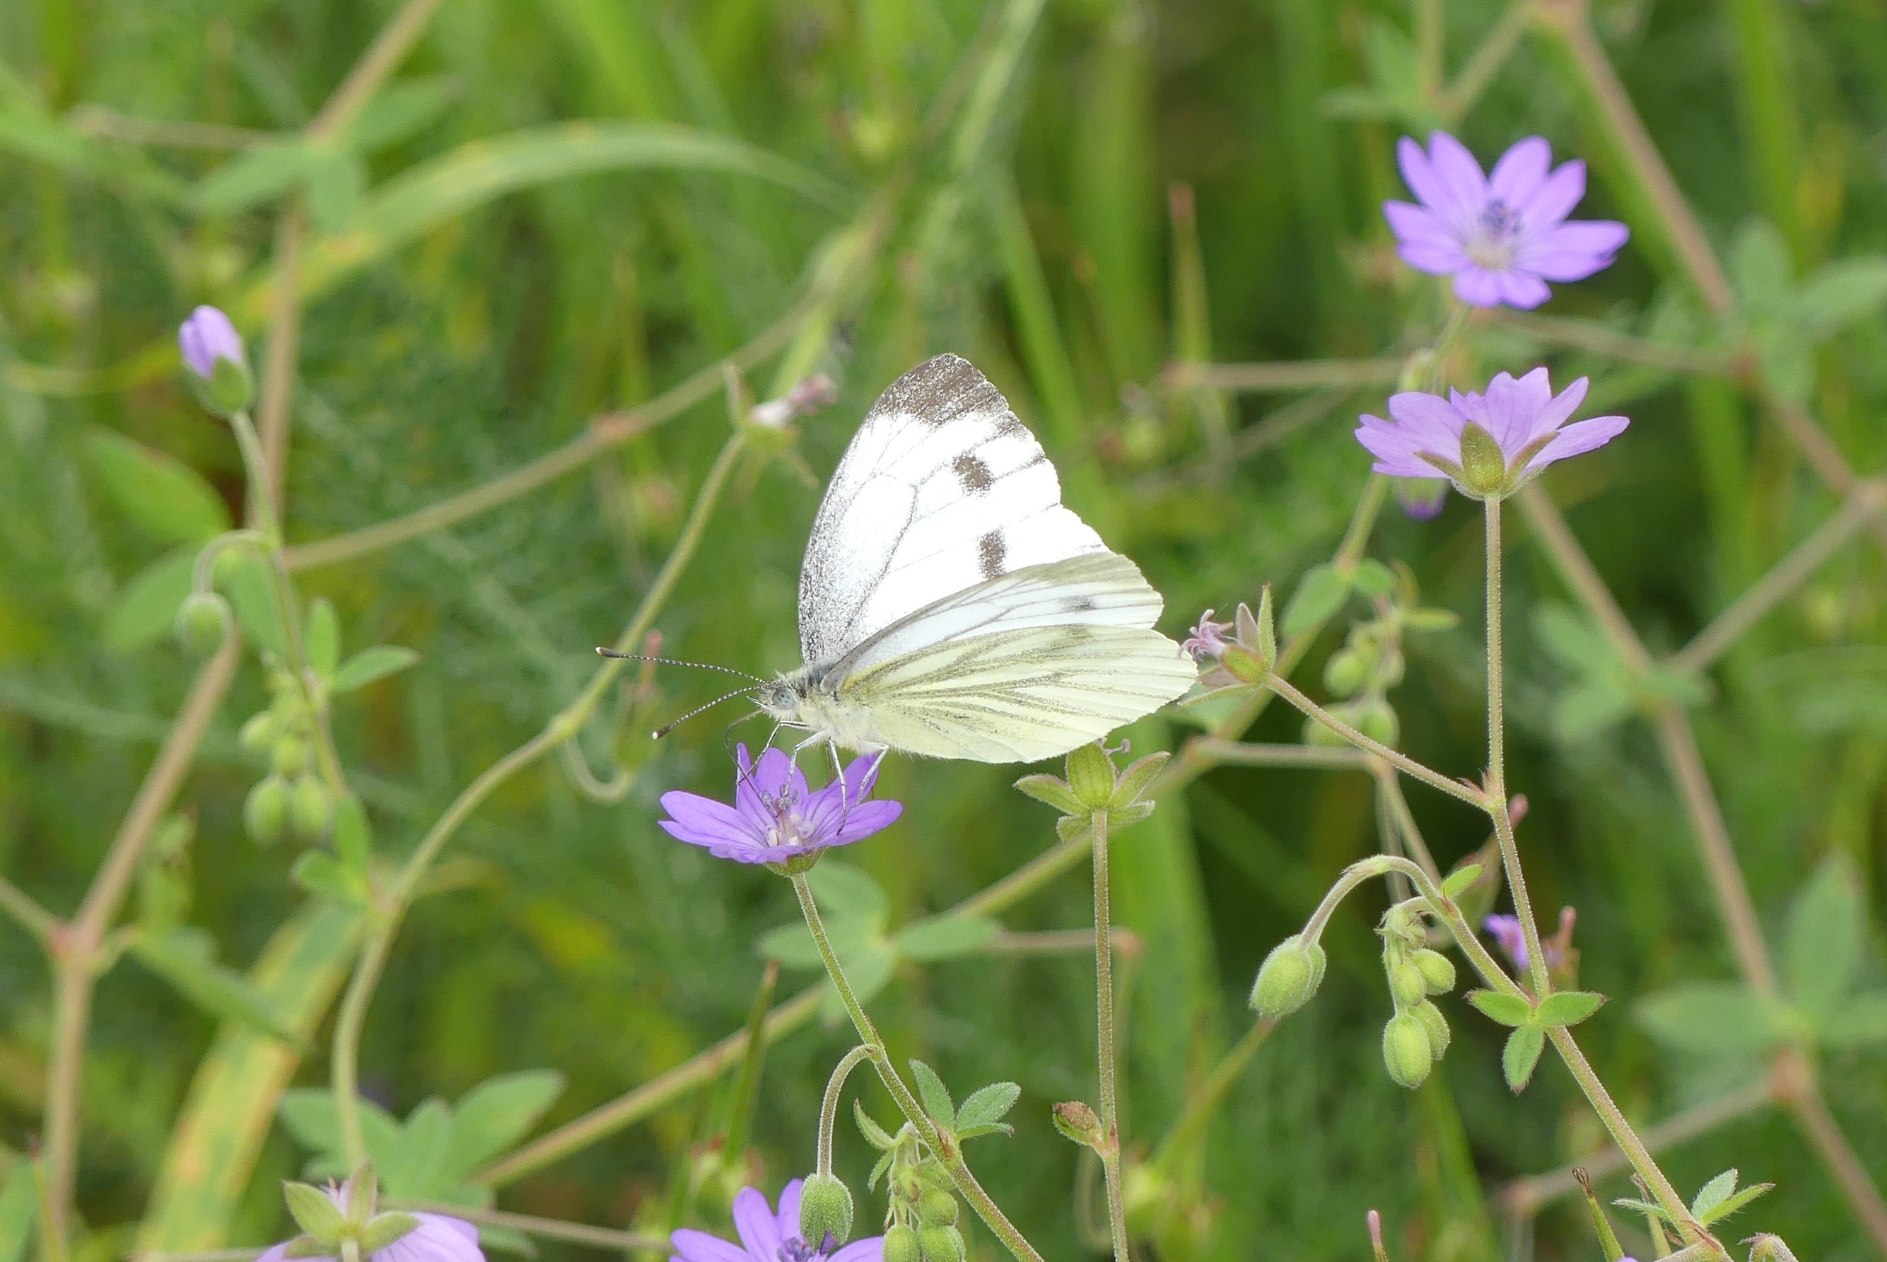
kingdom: Animalia
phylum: Arthropoda
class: Insecta
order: Lepidoptera
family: Pieridae
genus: Pieris
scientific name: Pieris napi
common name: Grønåret kålsommerfugl
